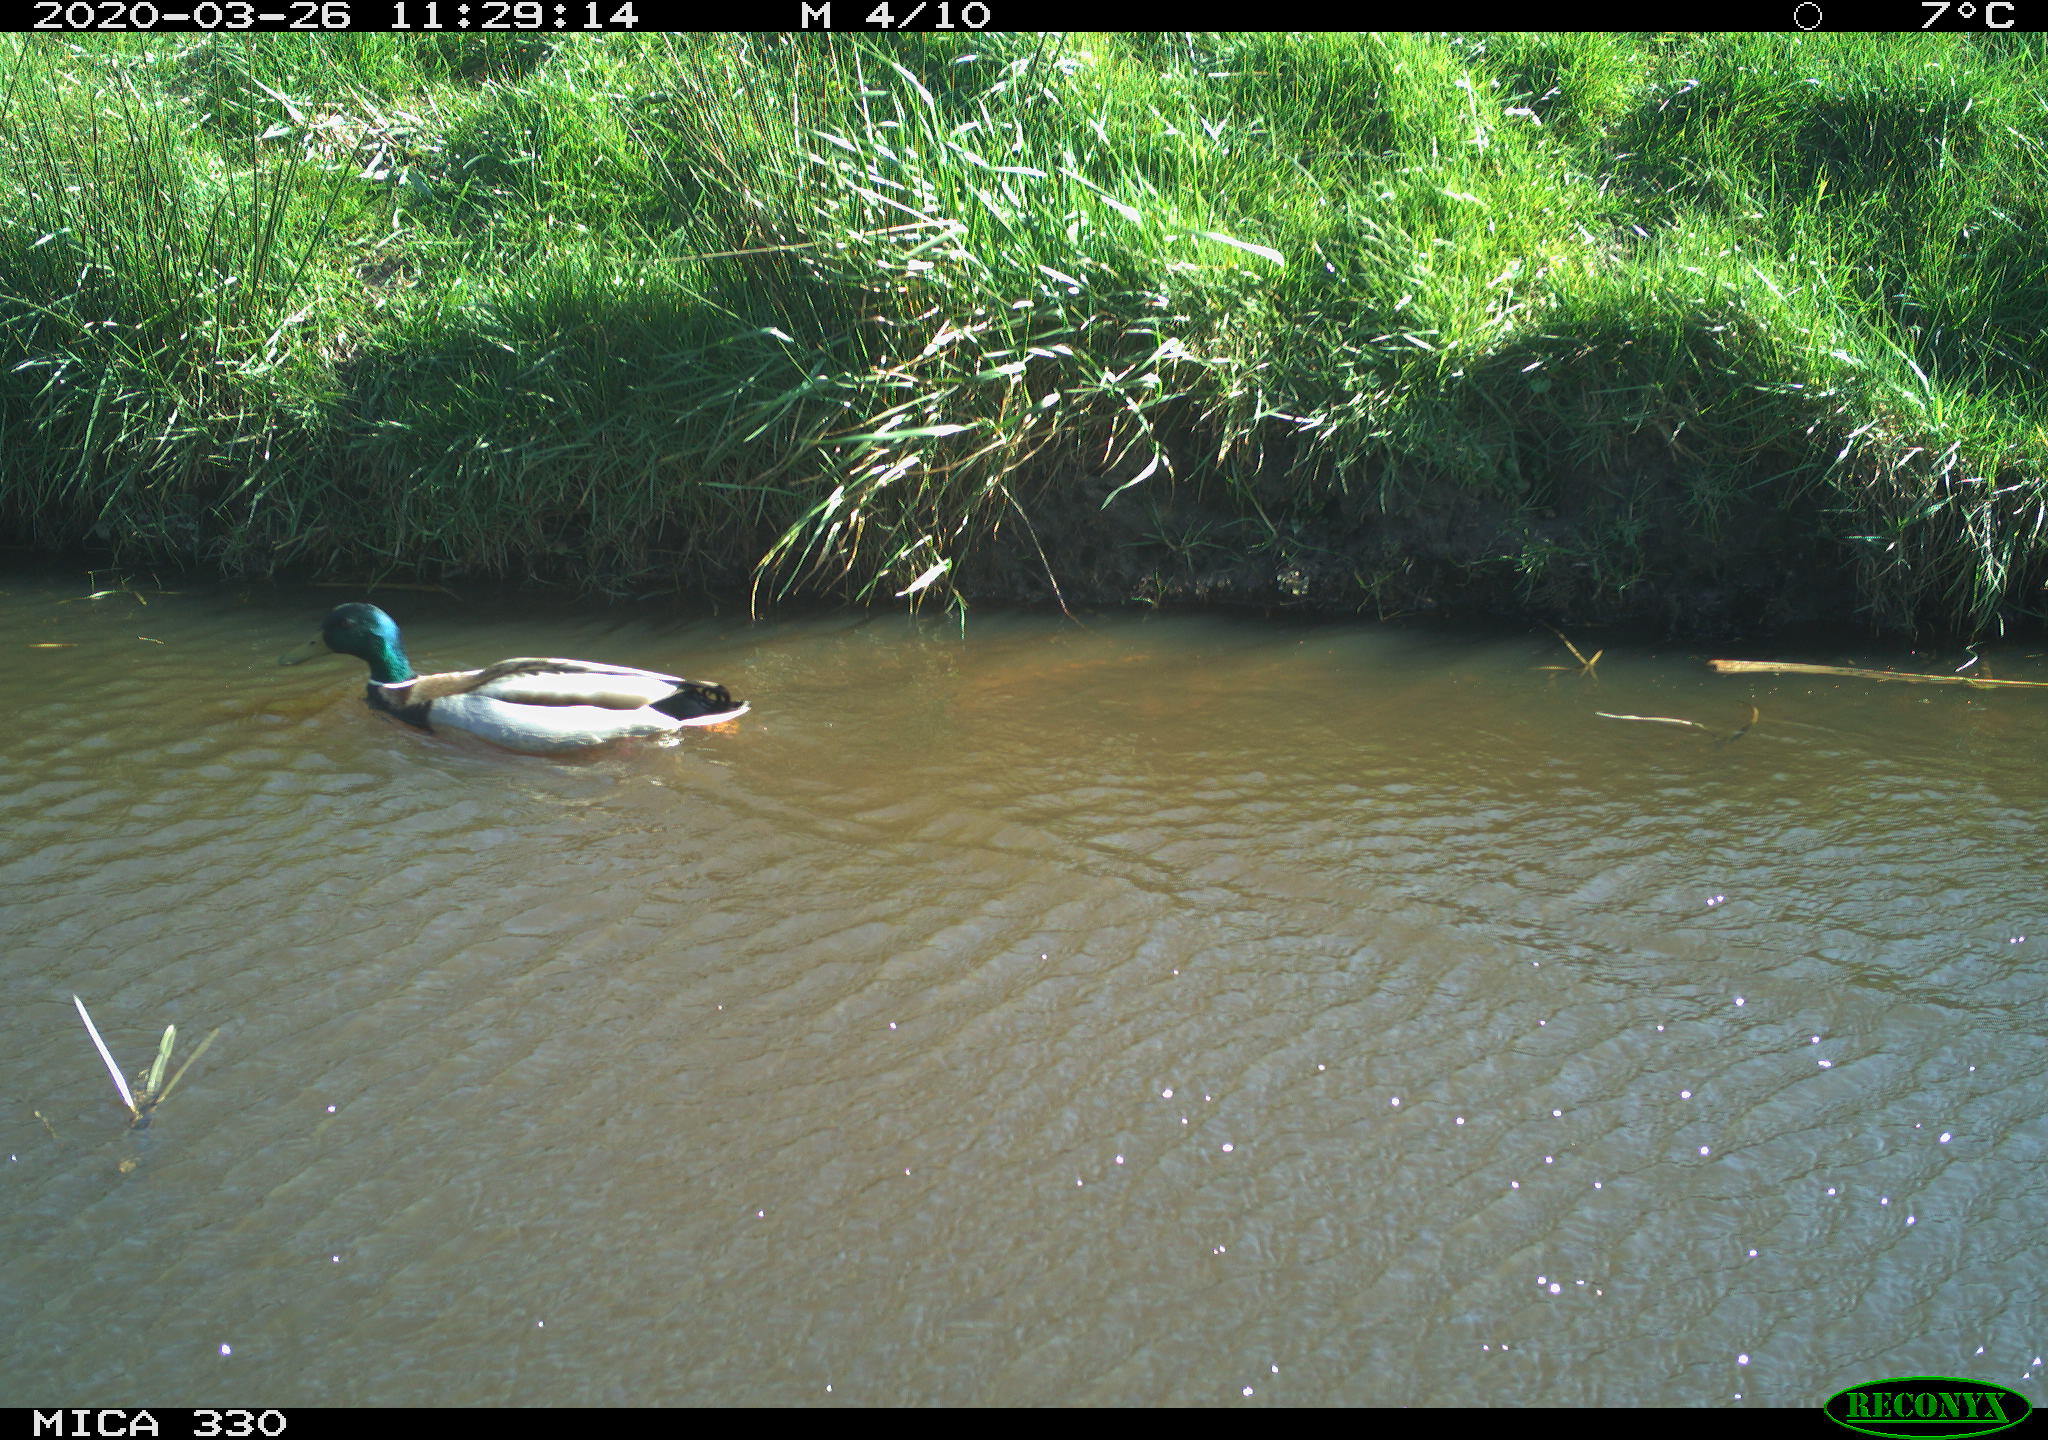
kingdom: Animalia
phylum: Chordata
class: Aves
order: Anseriformes
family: Anatidae
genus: Anas
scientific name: Anas platyrhynchos
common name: Mallard
